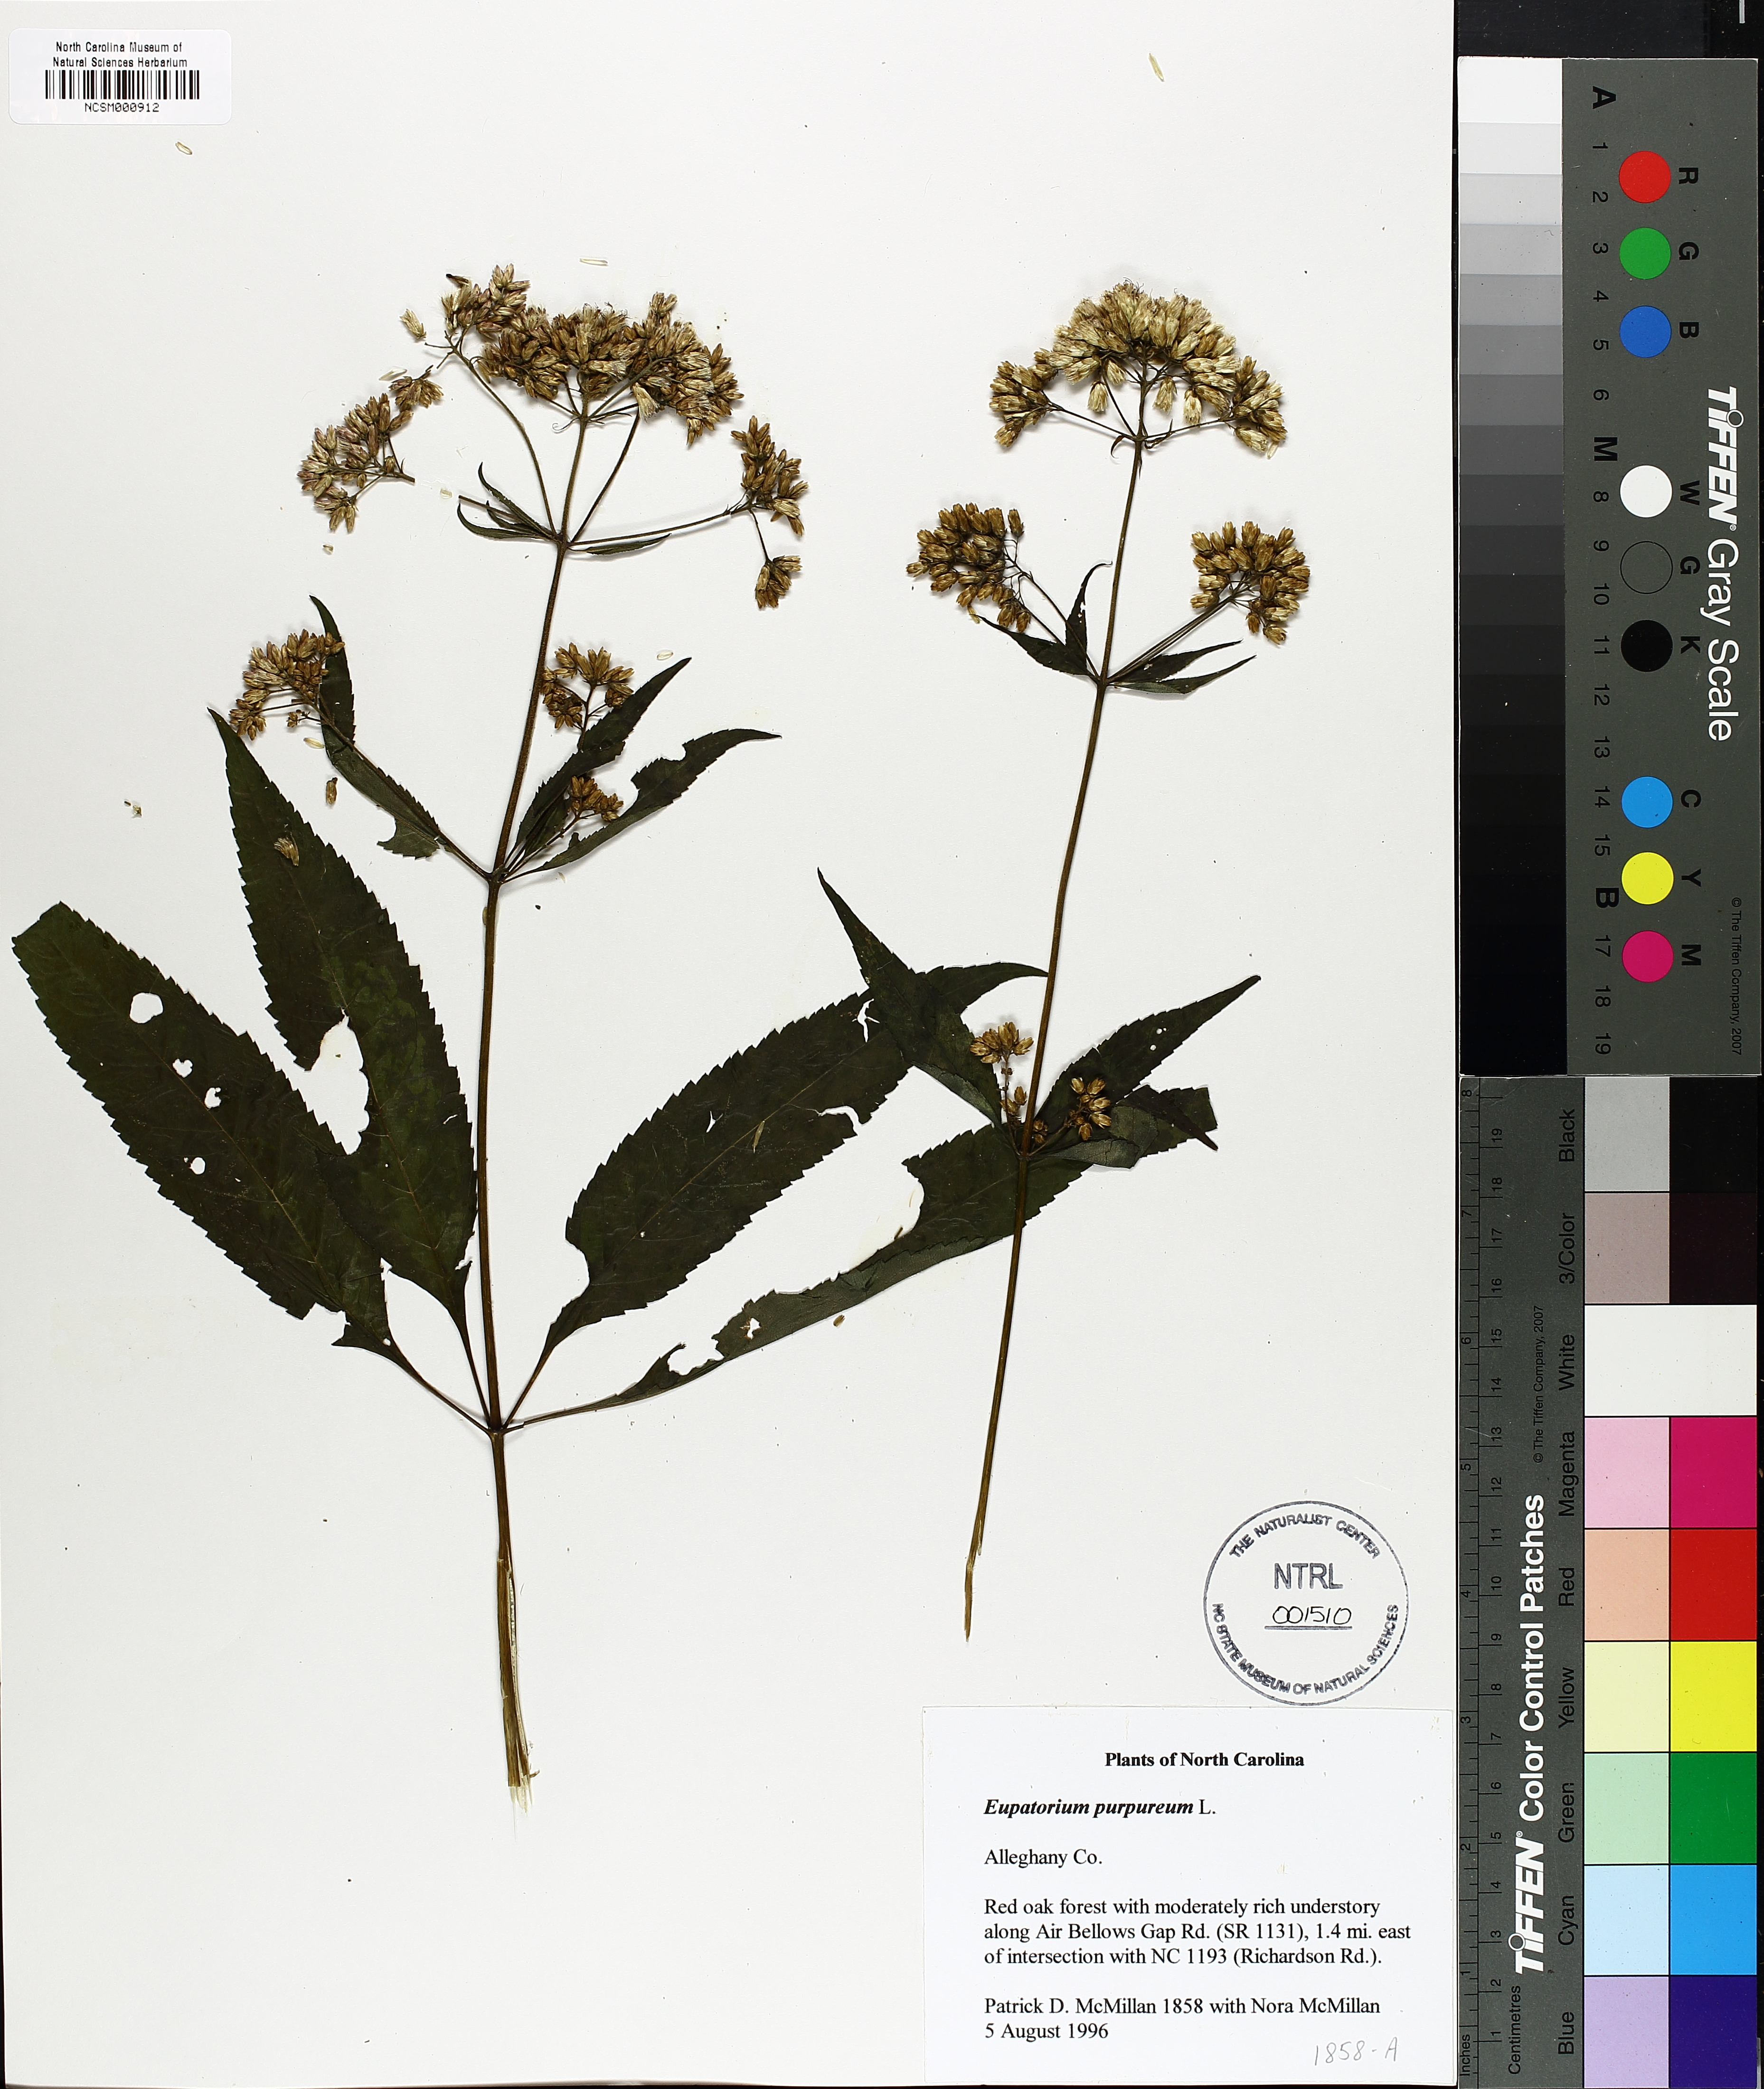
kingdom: Plantae
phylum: Tracheophyta
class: Magnoliopsida
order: Asterales
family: Asteraceae
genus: Eupatorium
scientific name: Eupatorium quaternum
